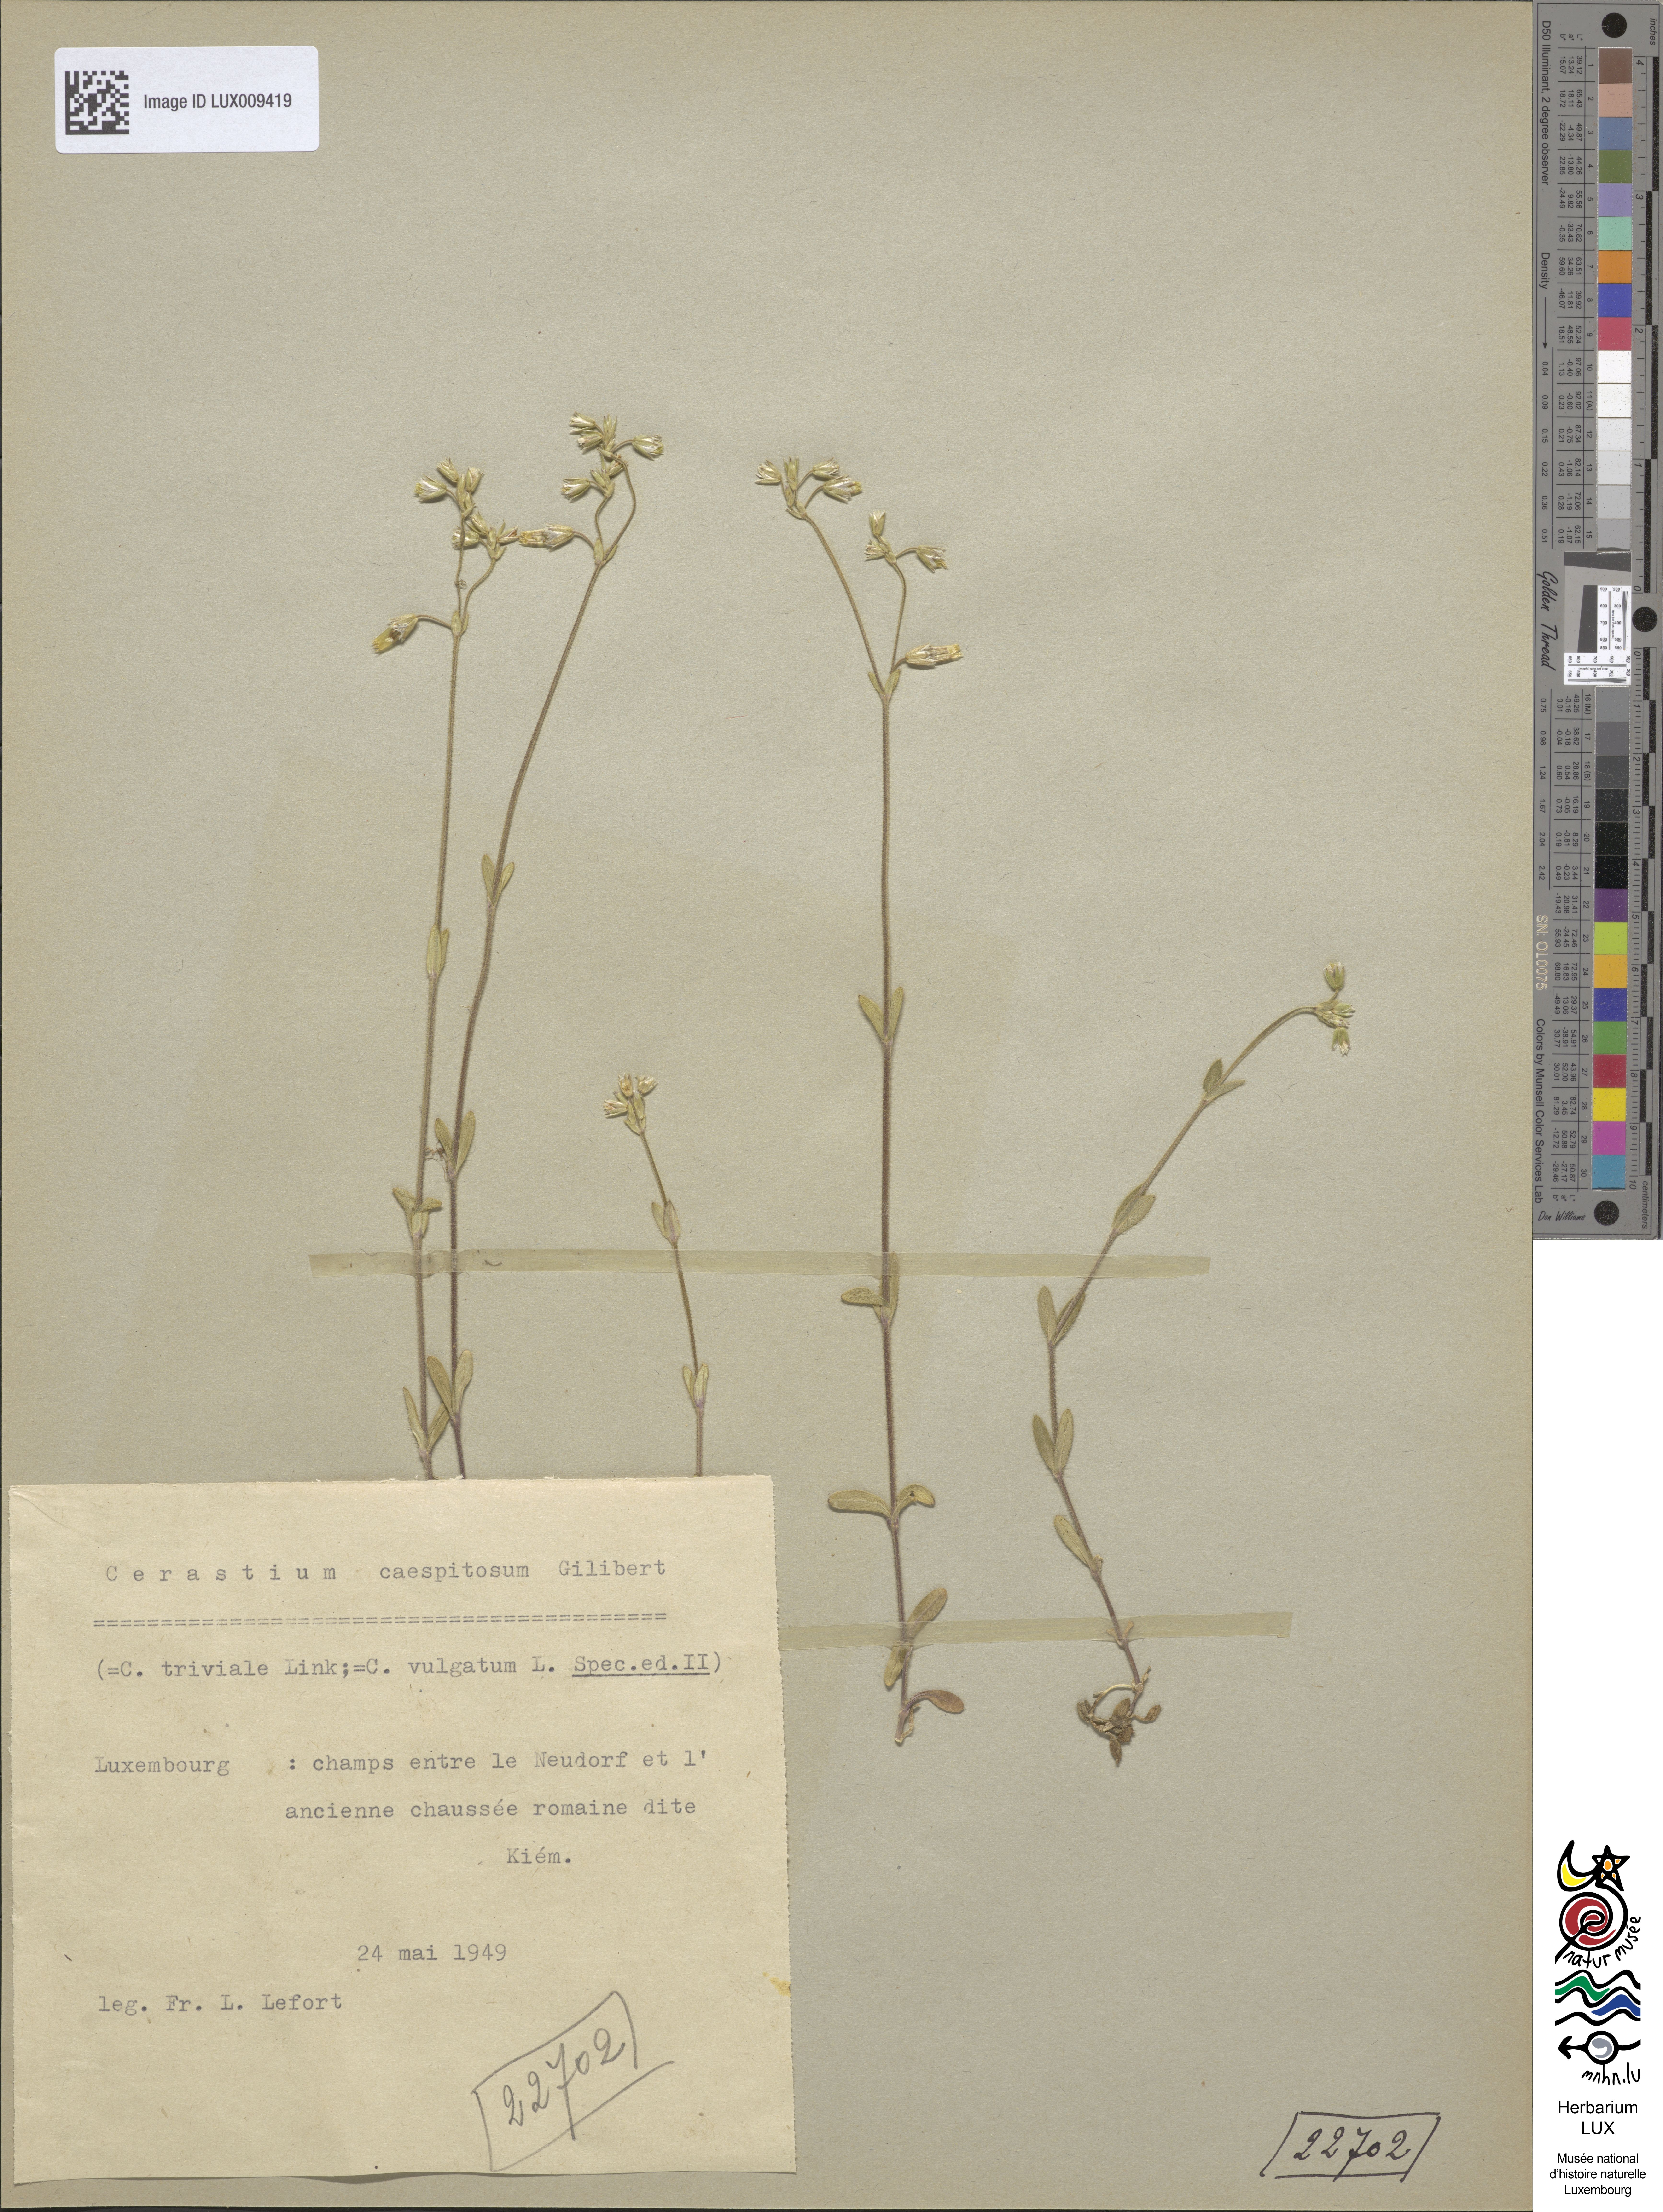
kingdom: Plantae
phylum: Tracheophyta
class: Magnoliopsida
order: Caryophyllales
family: Caryophyllaceae
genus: Cerastium
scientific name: Cerastium holosteoides
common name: Big chickweed
